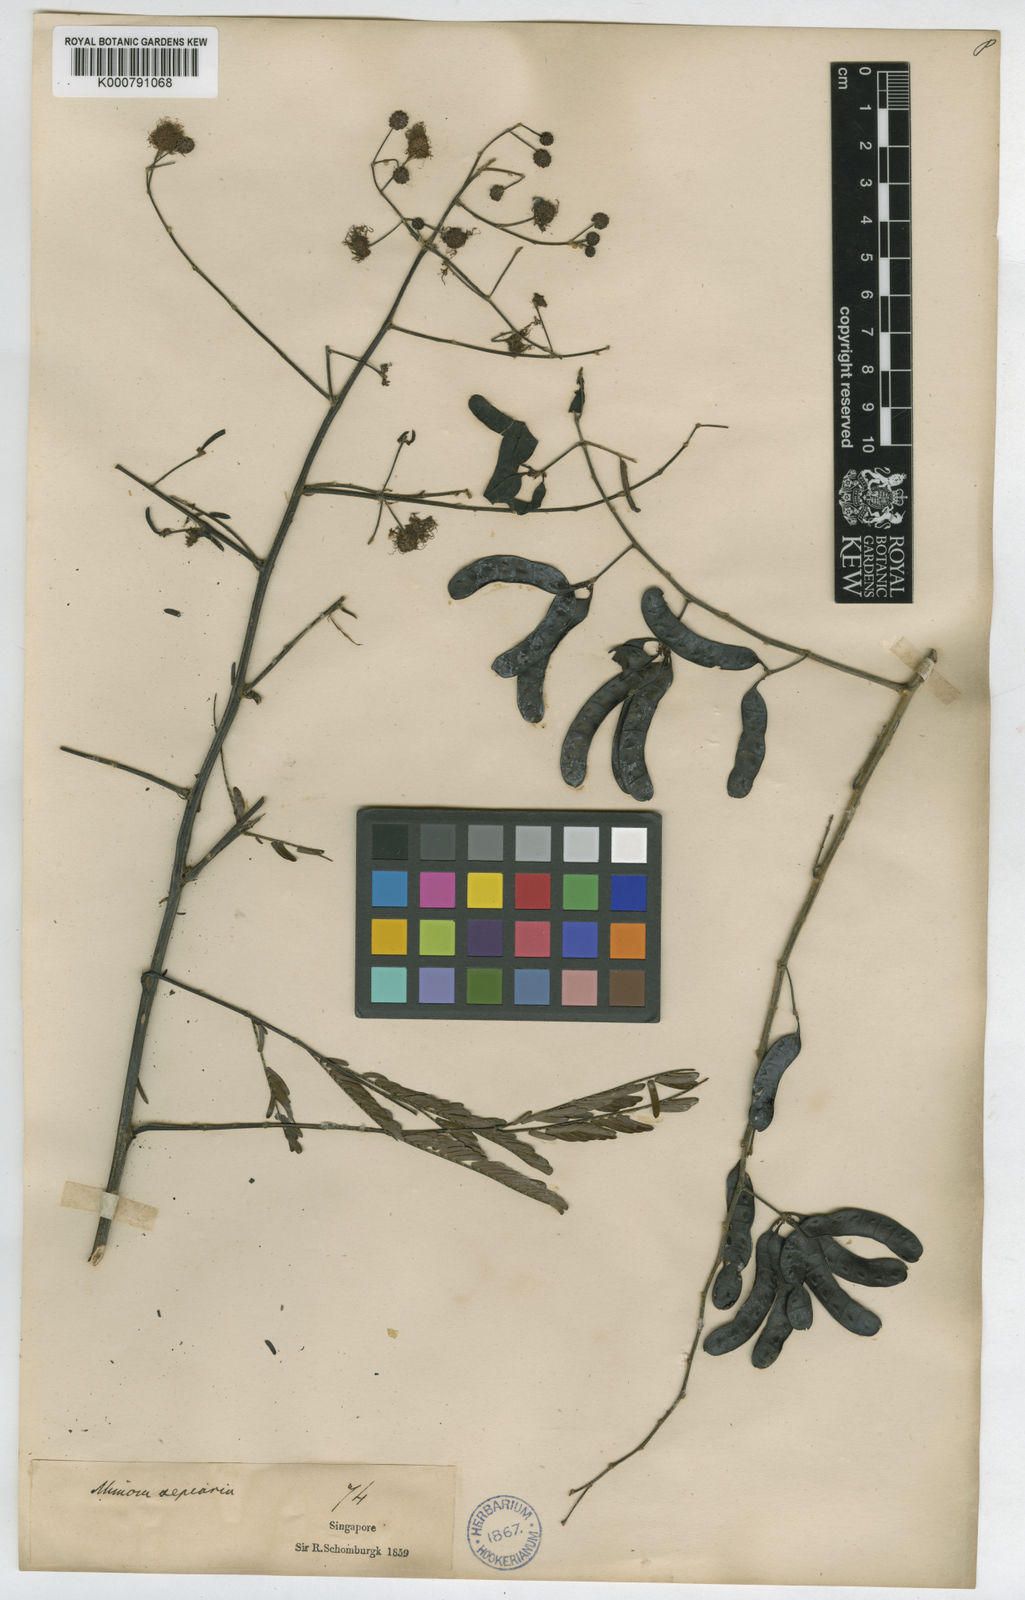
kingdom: Plantae
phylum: Tracheophyta
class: Magnoliopsida
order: Fabales
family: Fabaceae
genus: Mimosa
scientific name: Mimosa bimucronata
